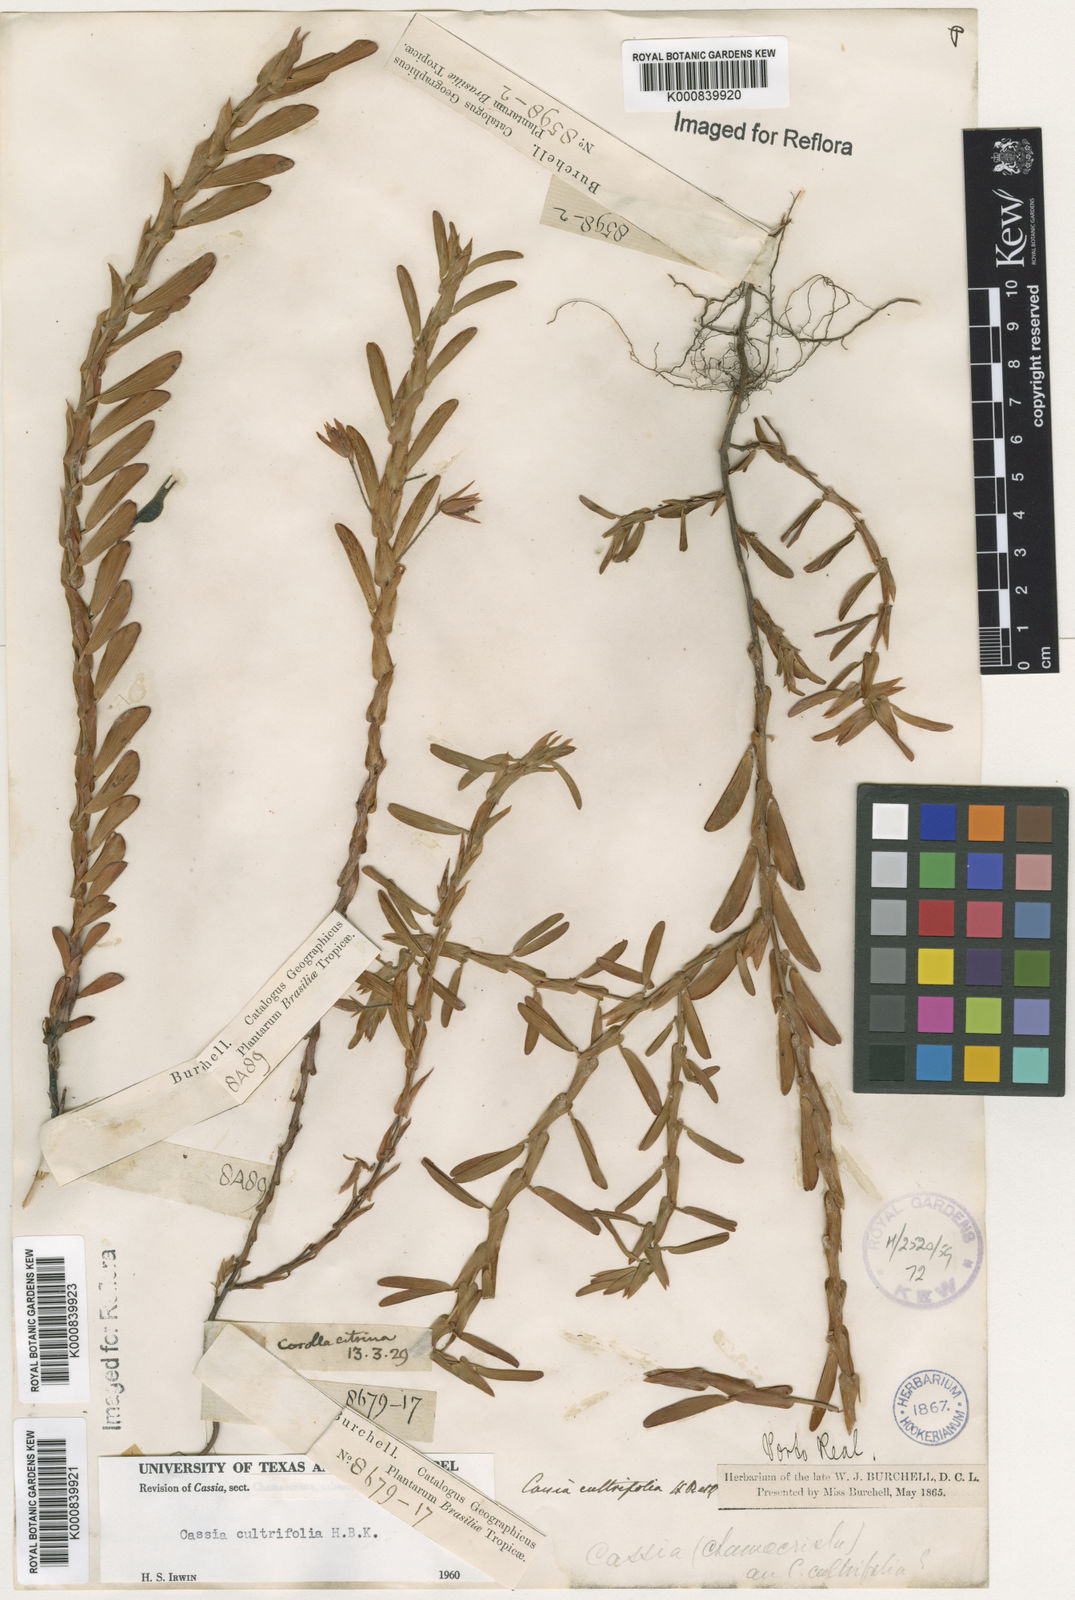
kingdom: Plantae
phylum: Tracheophyta
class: Magnoliopsida
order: Fabales
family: Fabaceae
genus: Chamaecrista
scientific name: Chamaecrista diphylla
